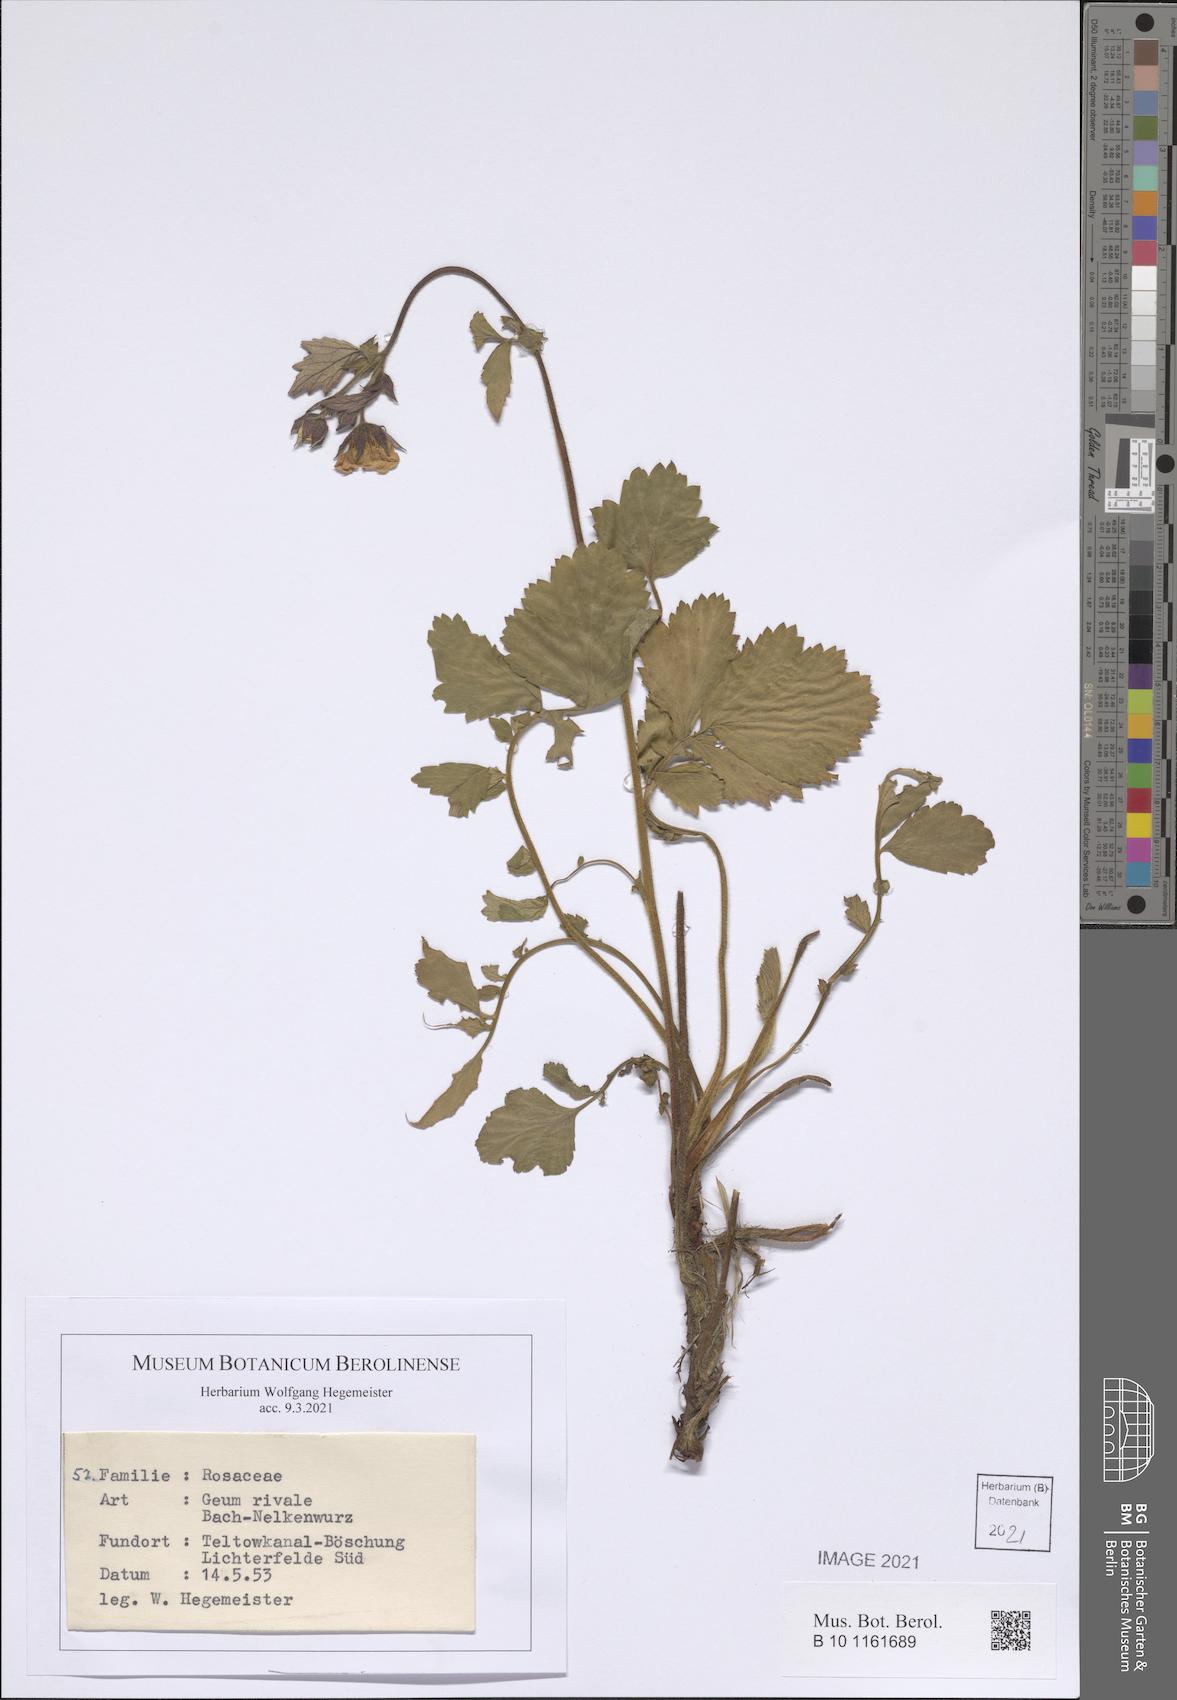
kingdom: Plantae
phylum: Tracheophyta
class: Magnoliopsida
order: Rosales
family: Rosaceae
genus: Geum
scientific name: Geum rivale
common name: Water avens
